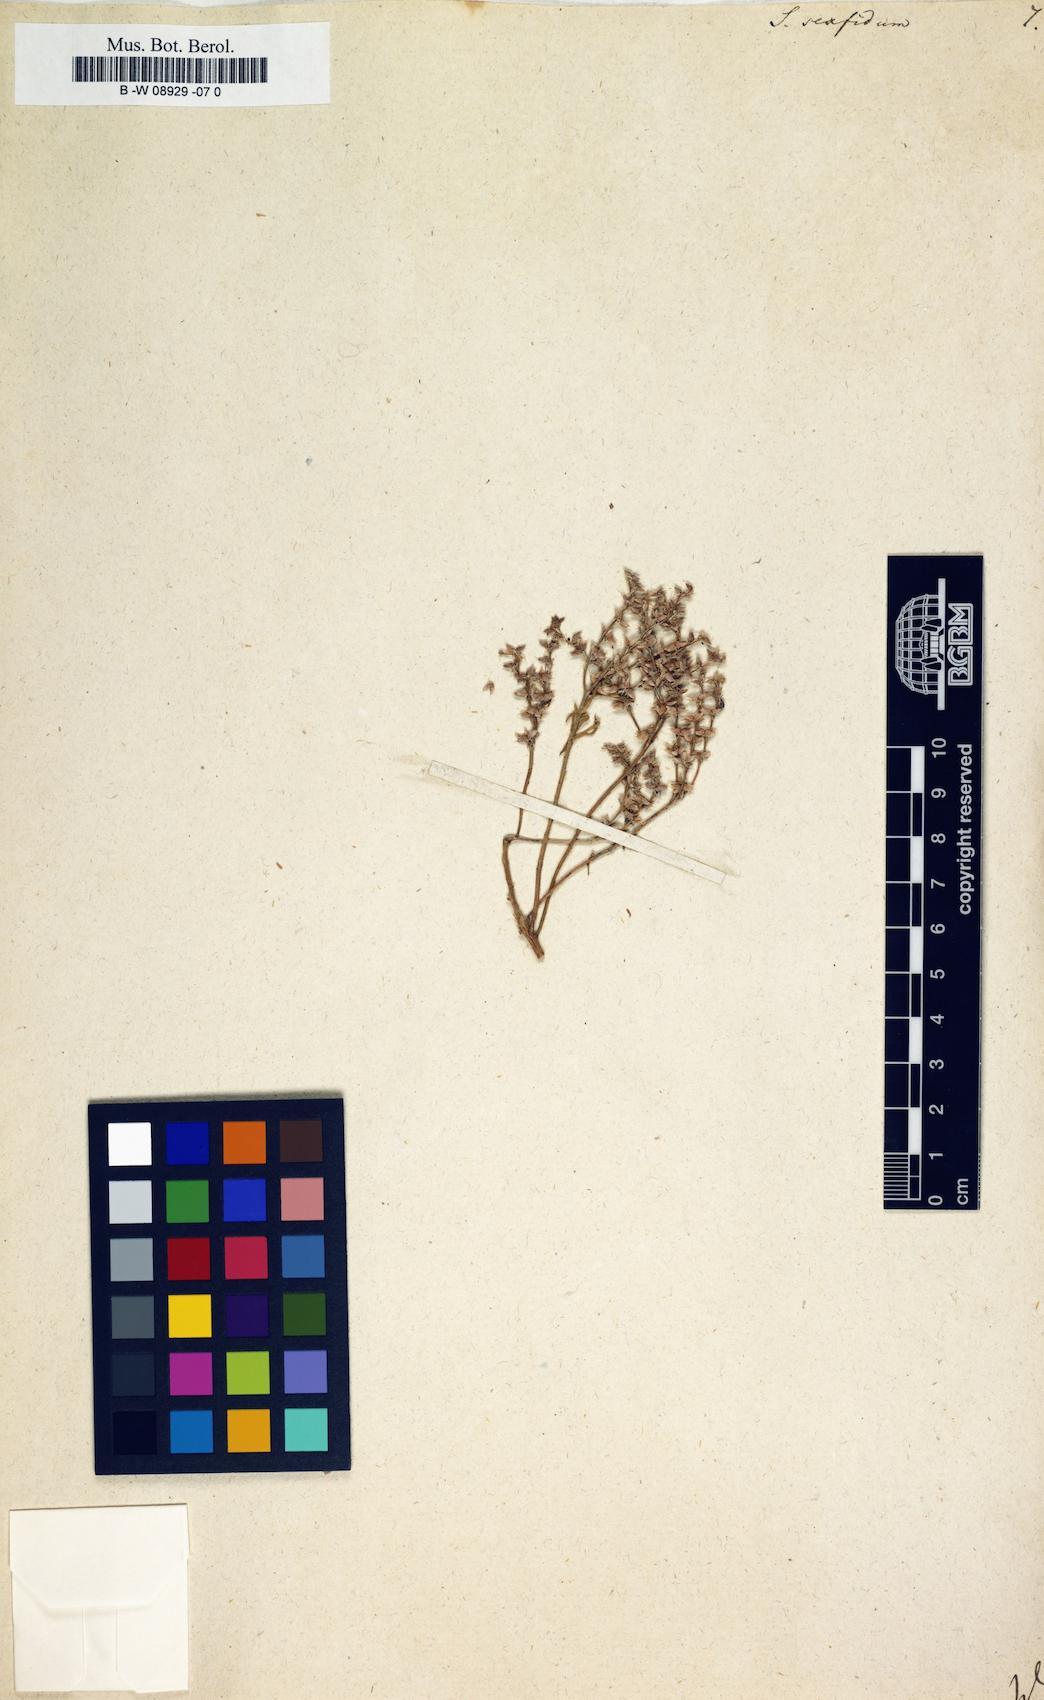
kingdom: Plantae
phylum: Tracheophyta
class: Magnoliopsida
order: Saxifragales
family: Crassulaceae
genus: Sedum
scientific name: Sedum hispanicum
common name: Spanish stonecrop
